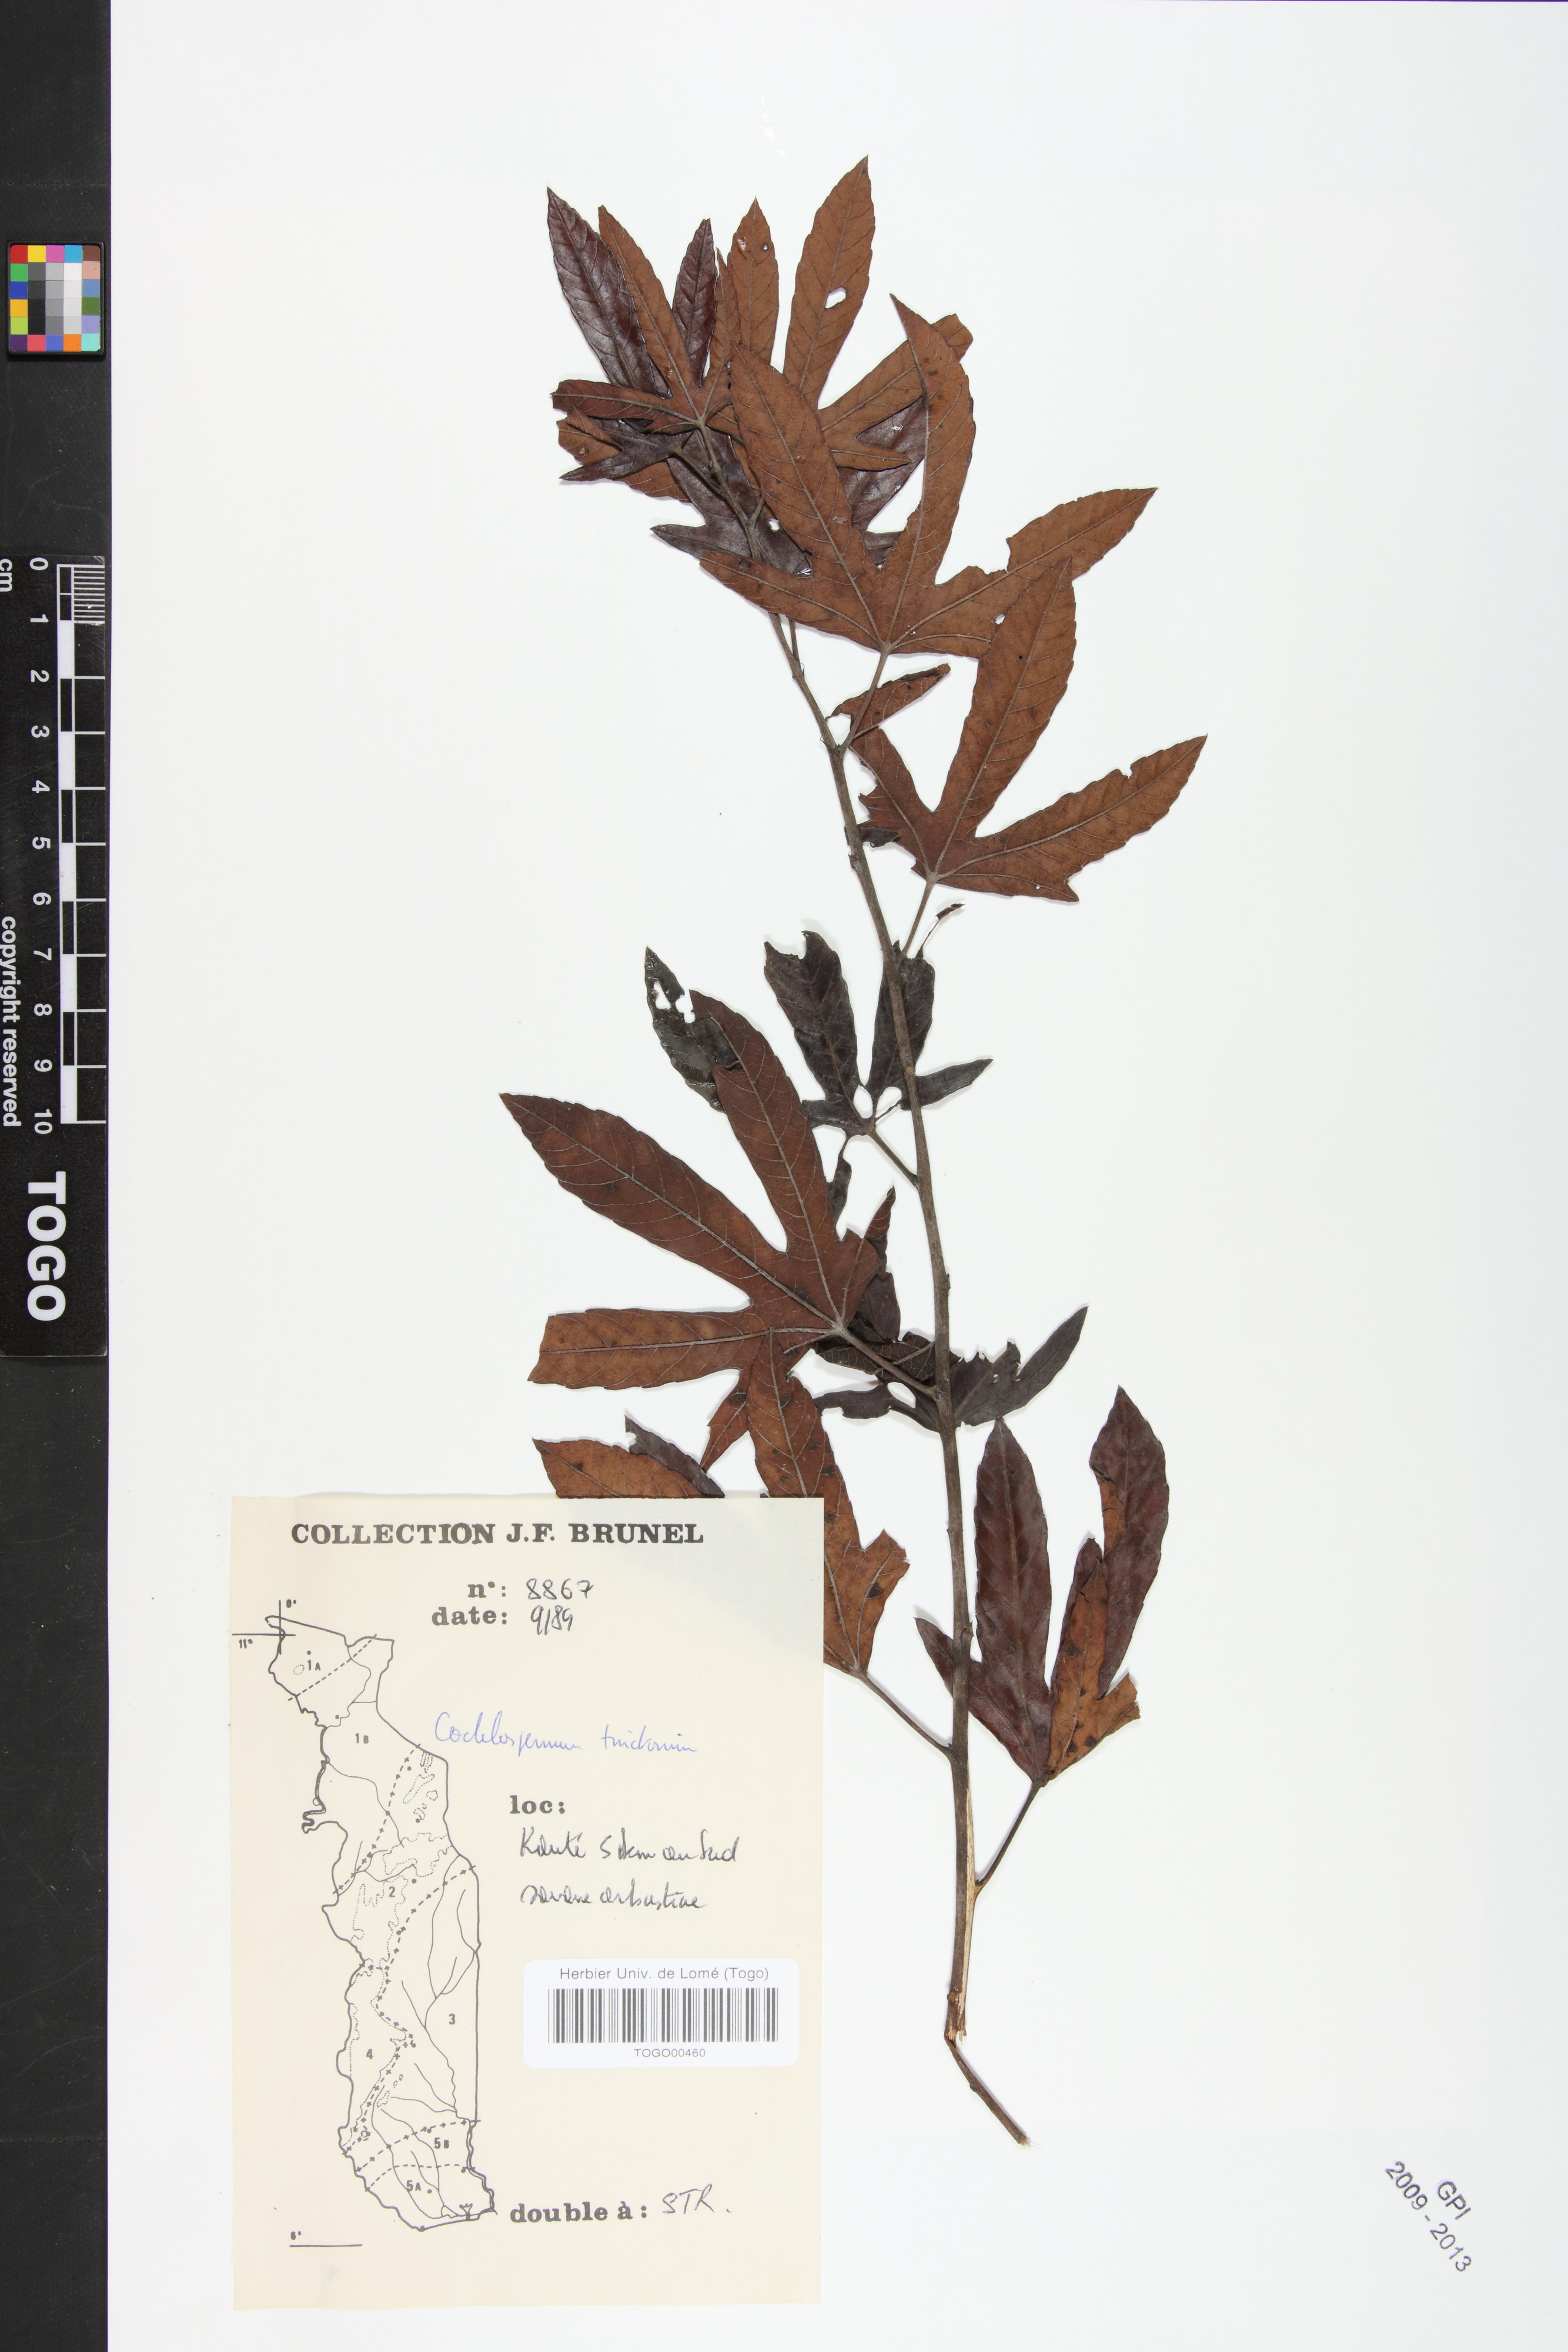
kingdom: Plantae
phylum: Tracheophyta
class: Magnoliopsida
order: Malvales
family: Cochlospermaceae
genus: Cochlospermum
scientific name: Cochlospermum tinctorium
